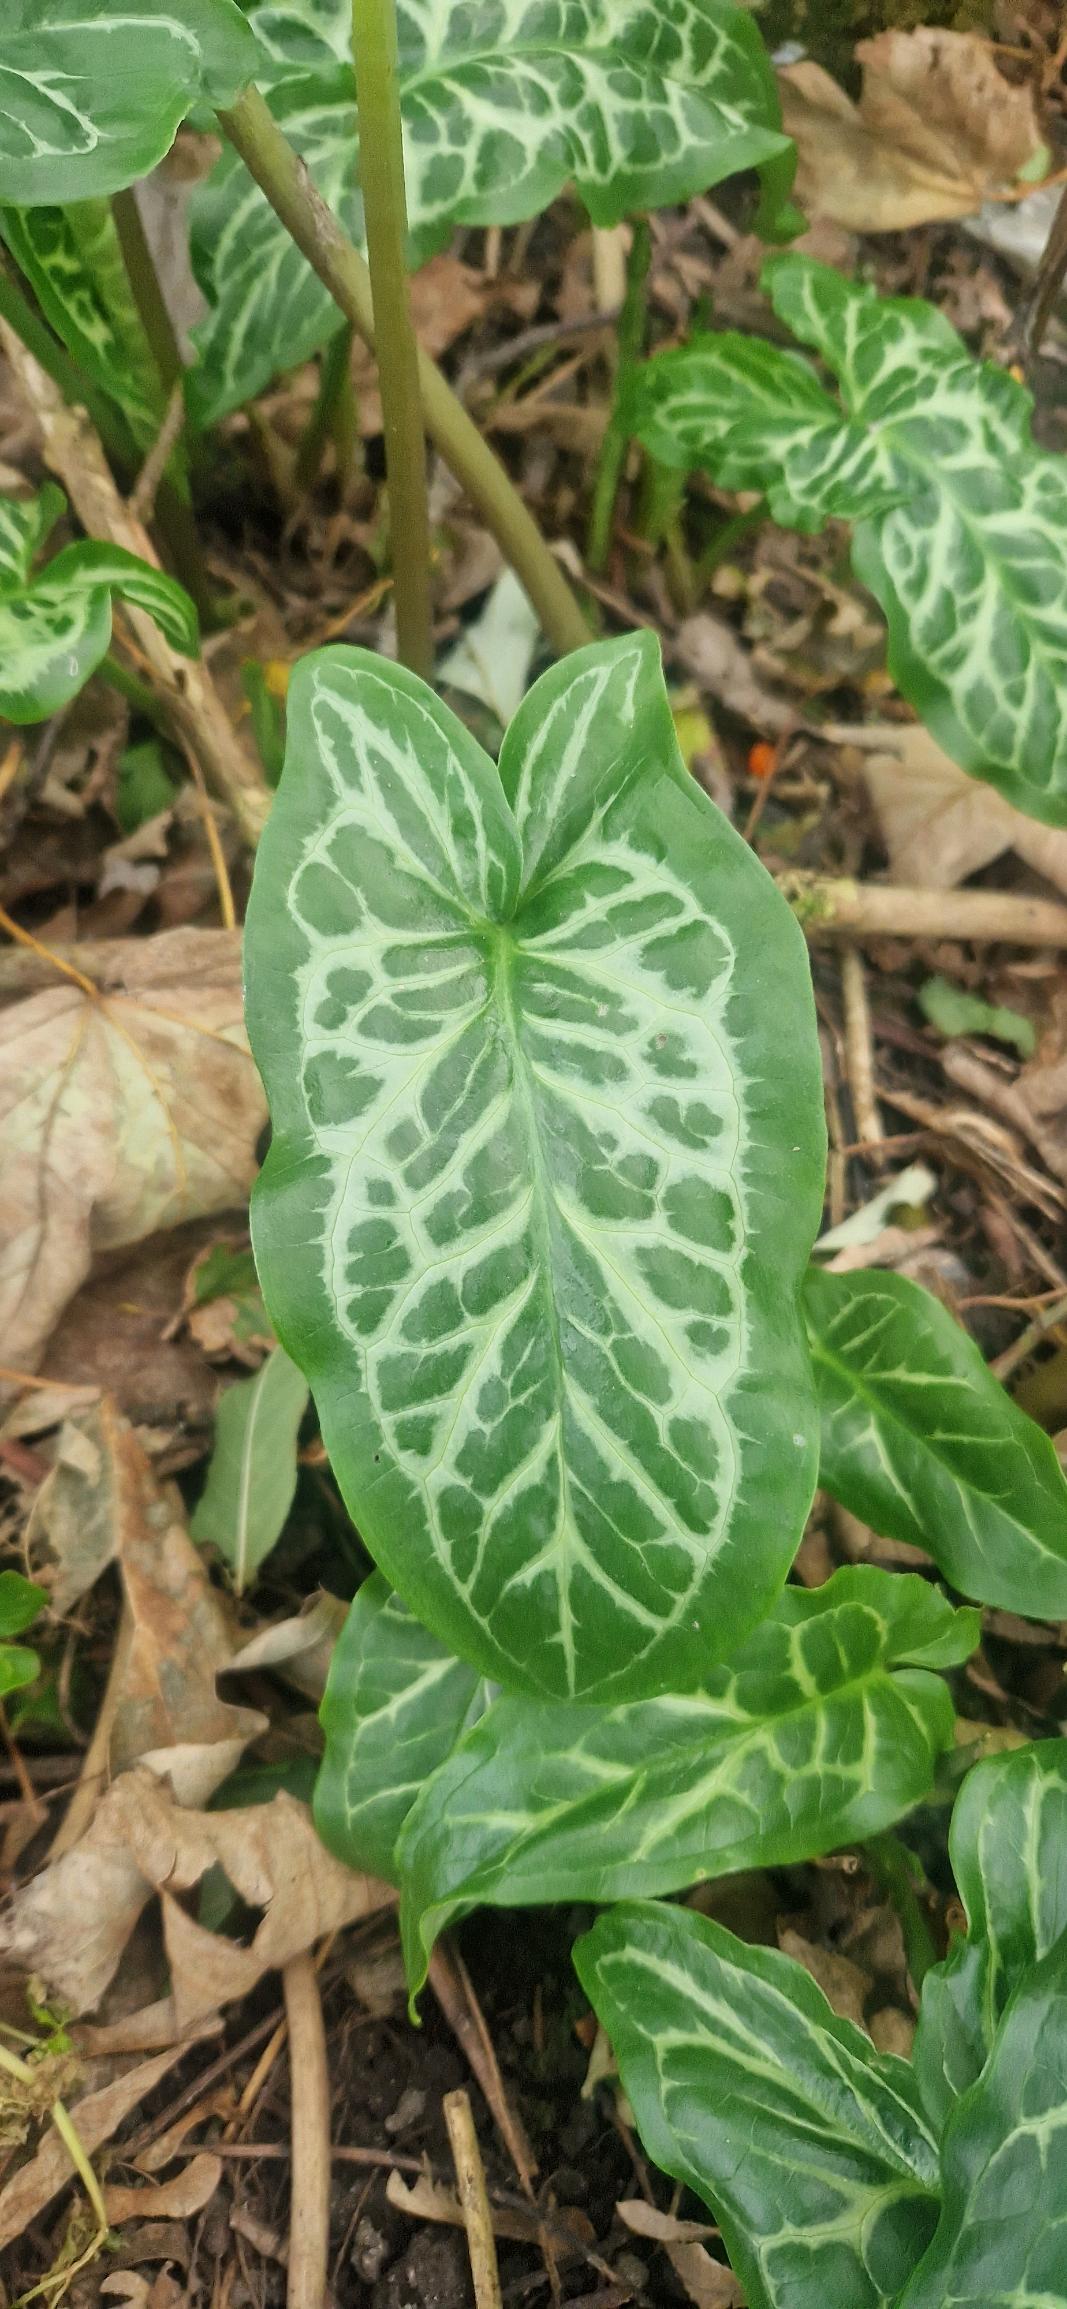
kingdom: Plantae
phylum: Tracheophyta
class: Liliopsida
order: Alismatales
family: Araceae
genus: Arum
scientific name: Arum italicum
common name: Italiensk arum
